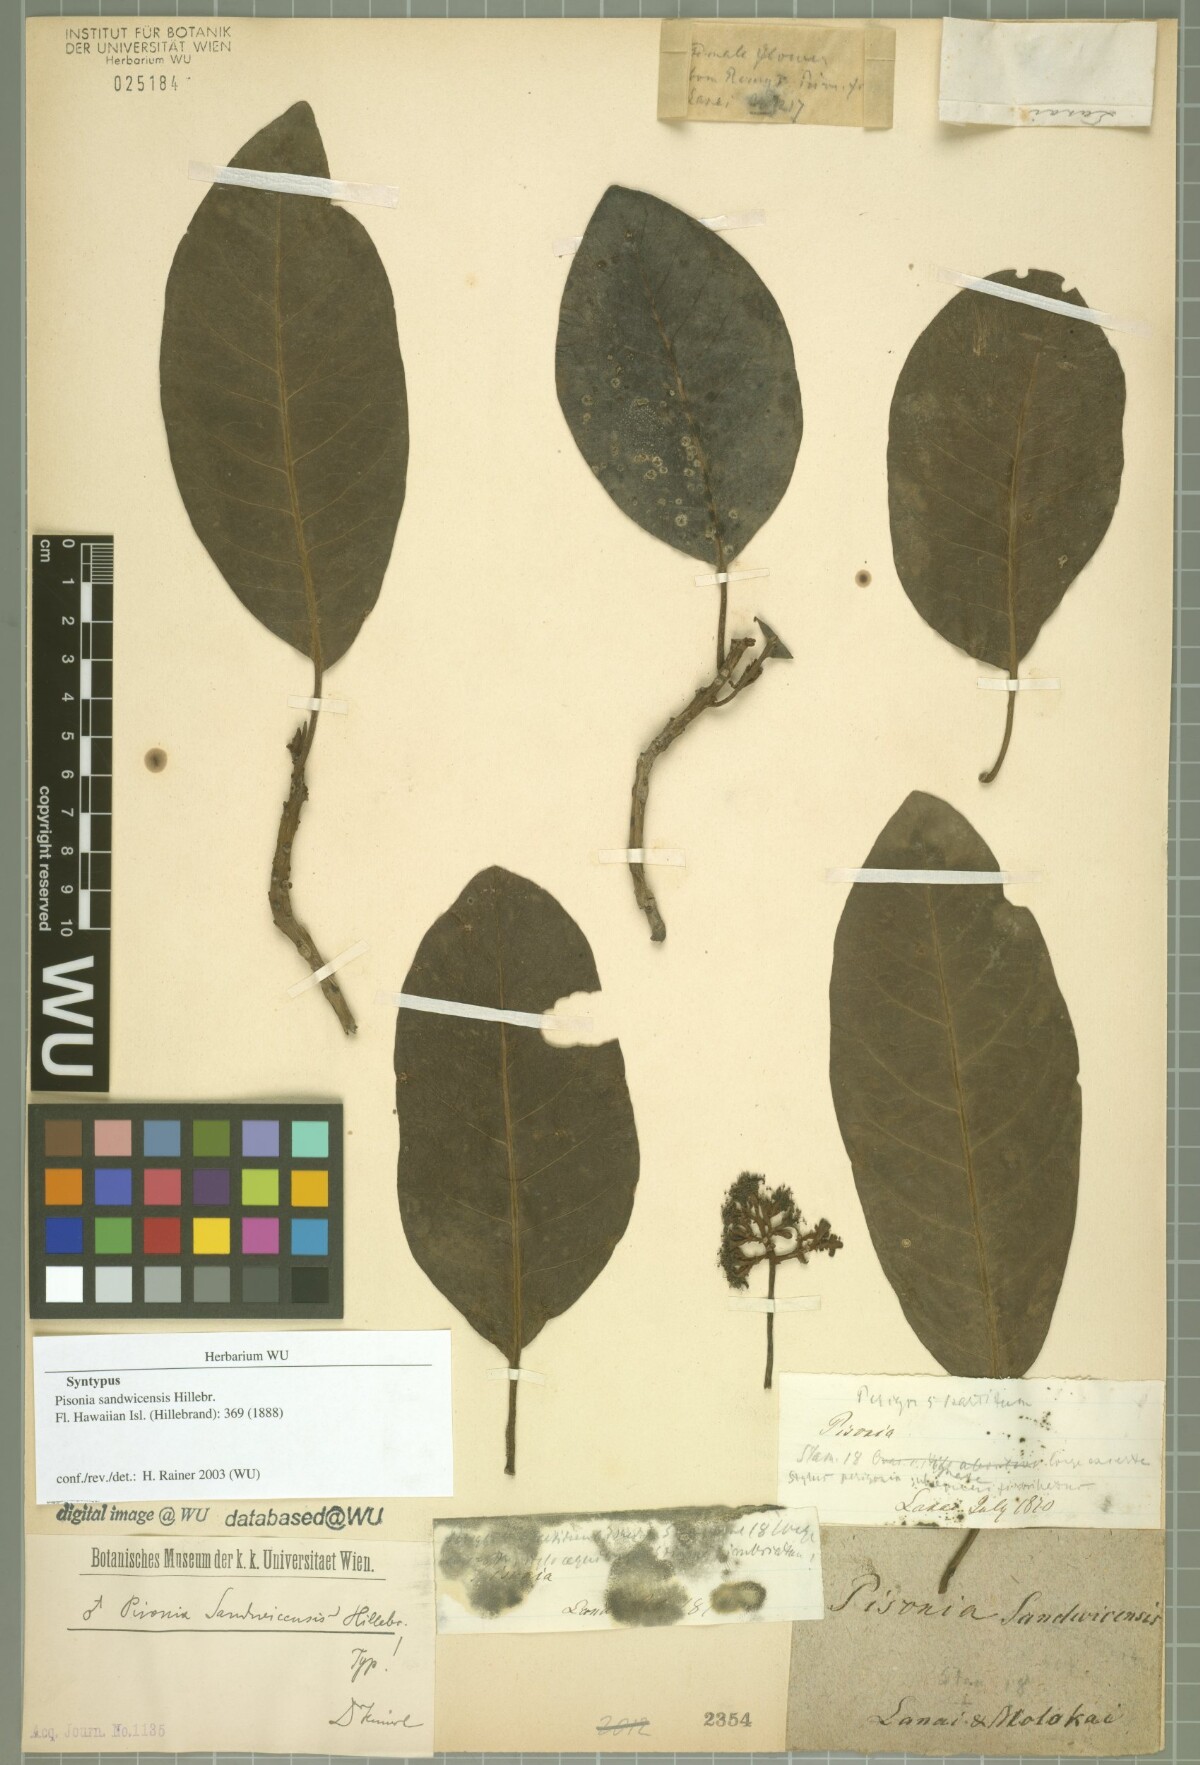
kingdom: Plantae
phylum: Tracheophyta
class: Magnoliopsida
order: Caryophyllales
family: Nyctaginaceae
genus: Pisonia
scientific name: Pisonia sandwicensis
